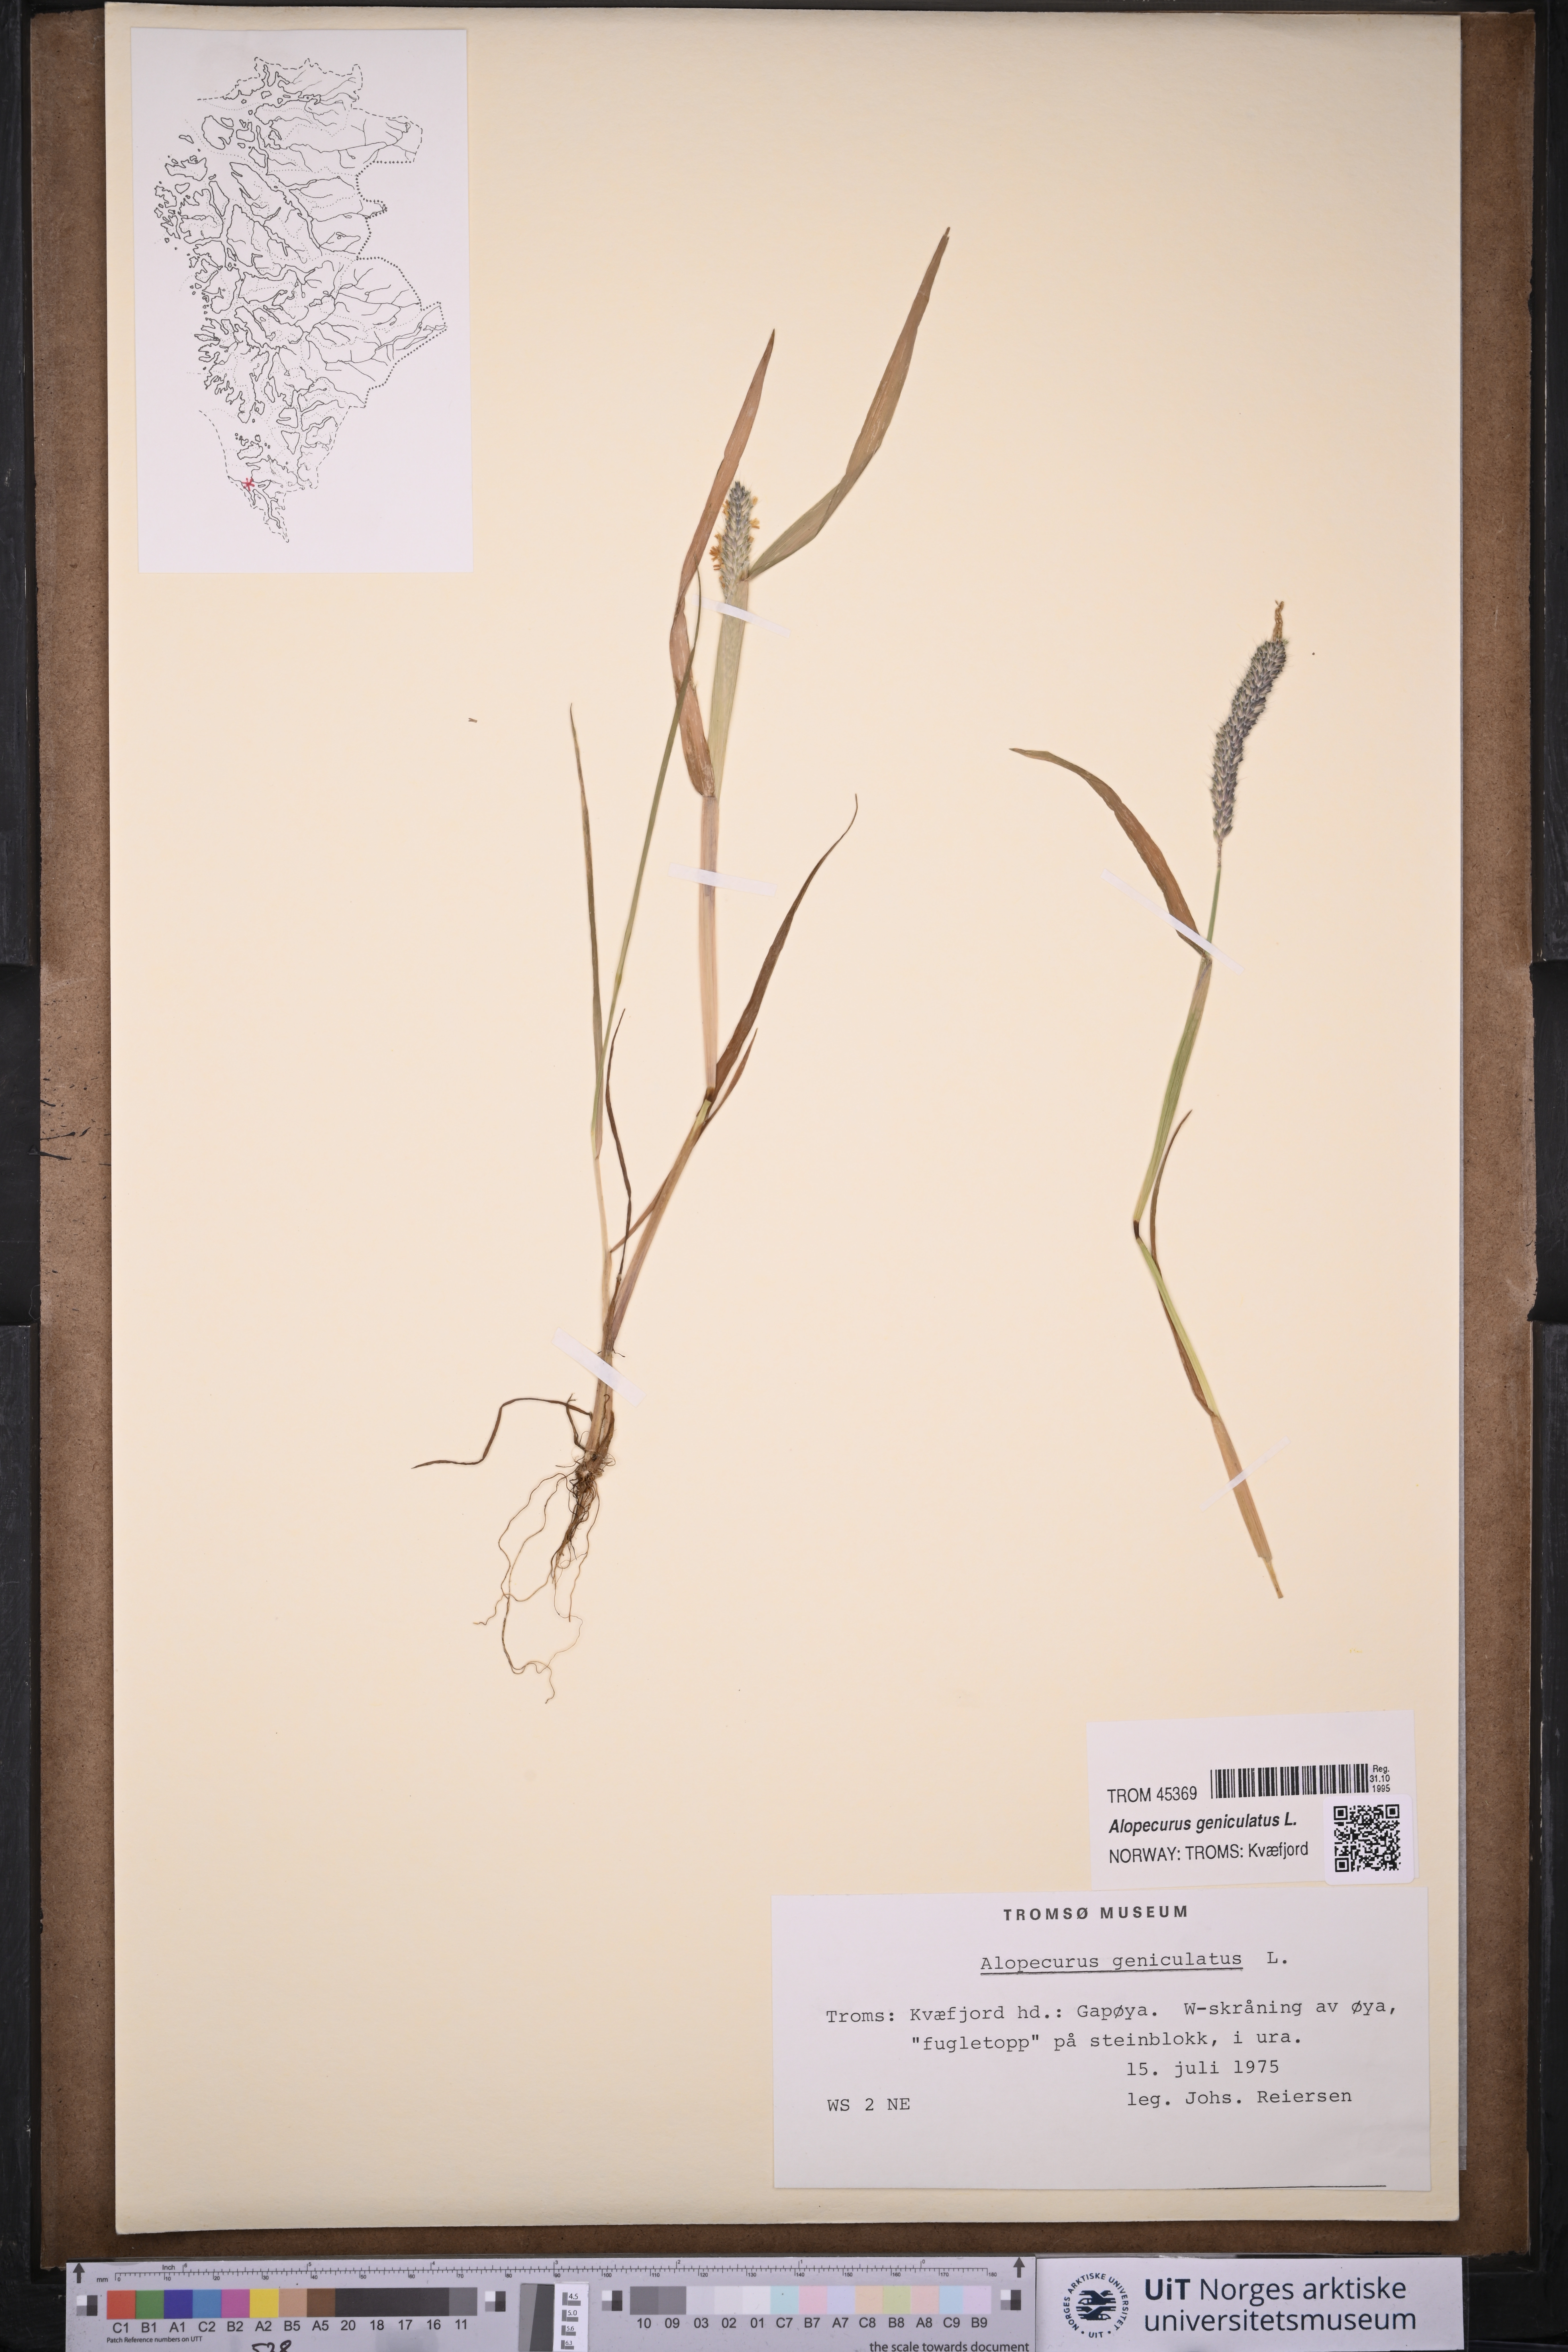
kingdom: Plantae
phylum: Tracheophyta
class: Liliopsida
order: Poales
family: Poaceae
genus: Alopecurus
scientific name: Alopecurus geniculatus
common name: Water foxtail
